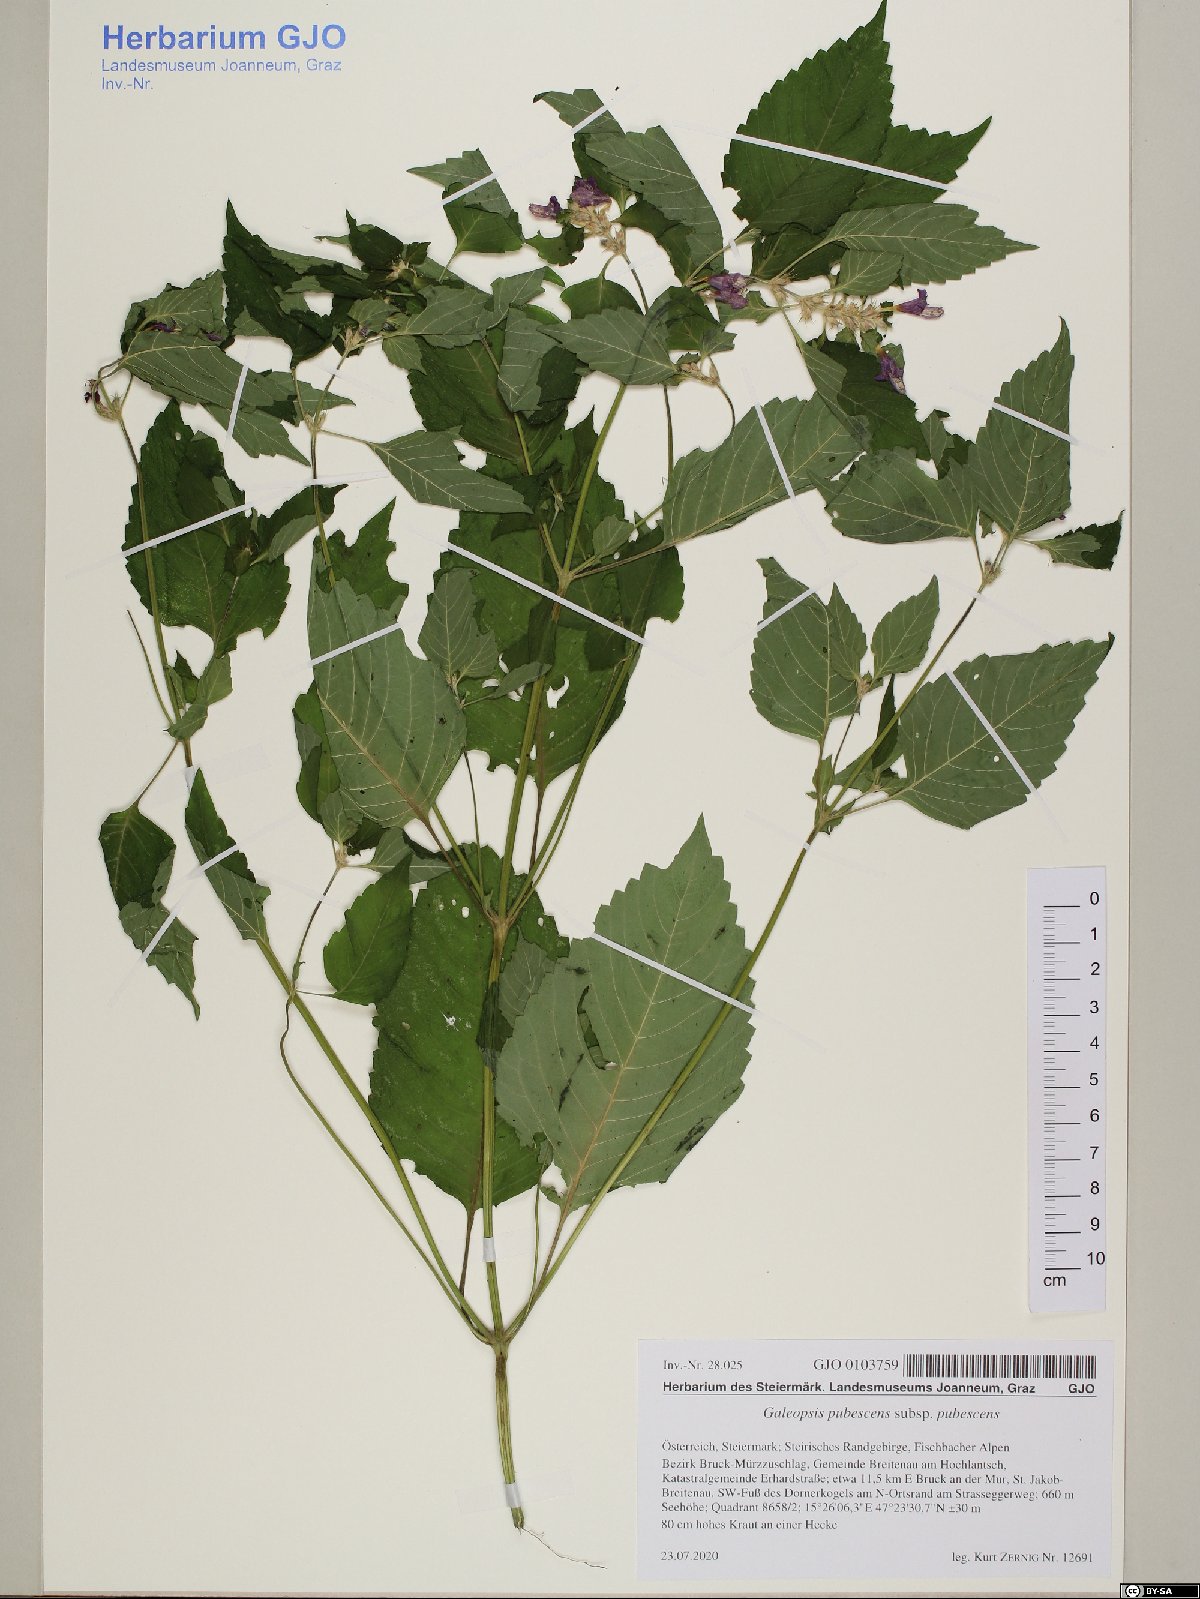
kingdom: Plantae
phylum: Tracheophyta
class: Magnoliopsida
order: Lamiales
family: Lamiaceae
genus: Galeopsis
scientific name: Galeopsis pubescens
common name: Downy hemp-nettle
